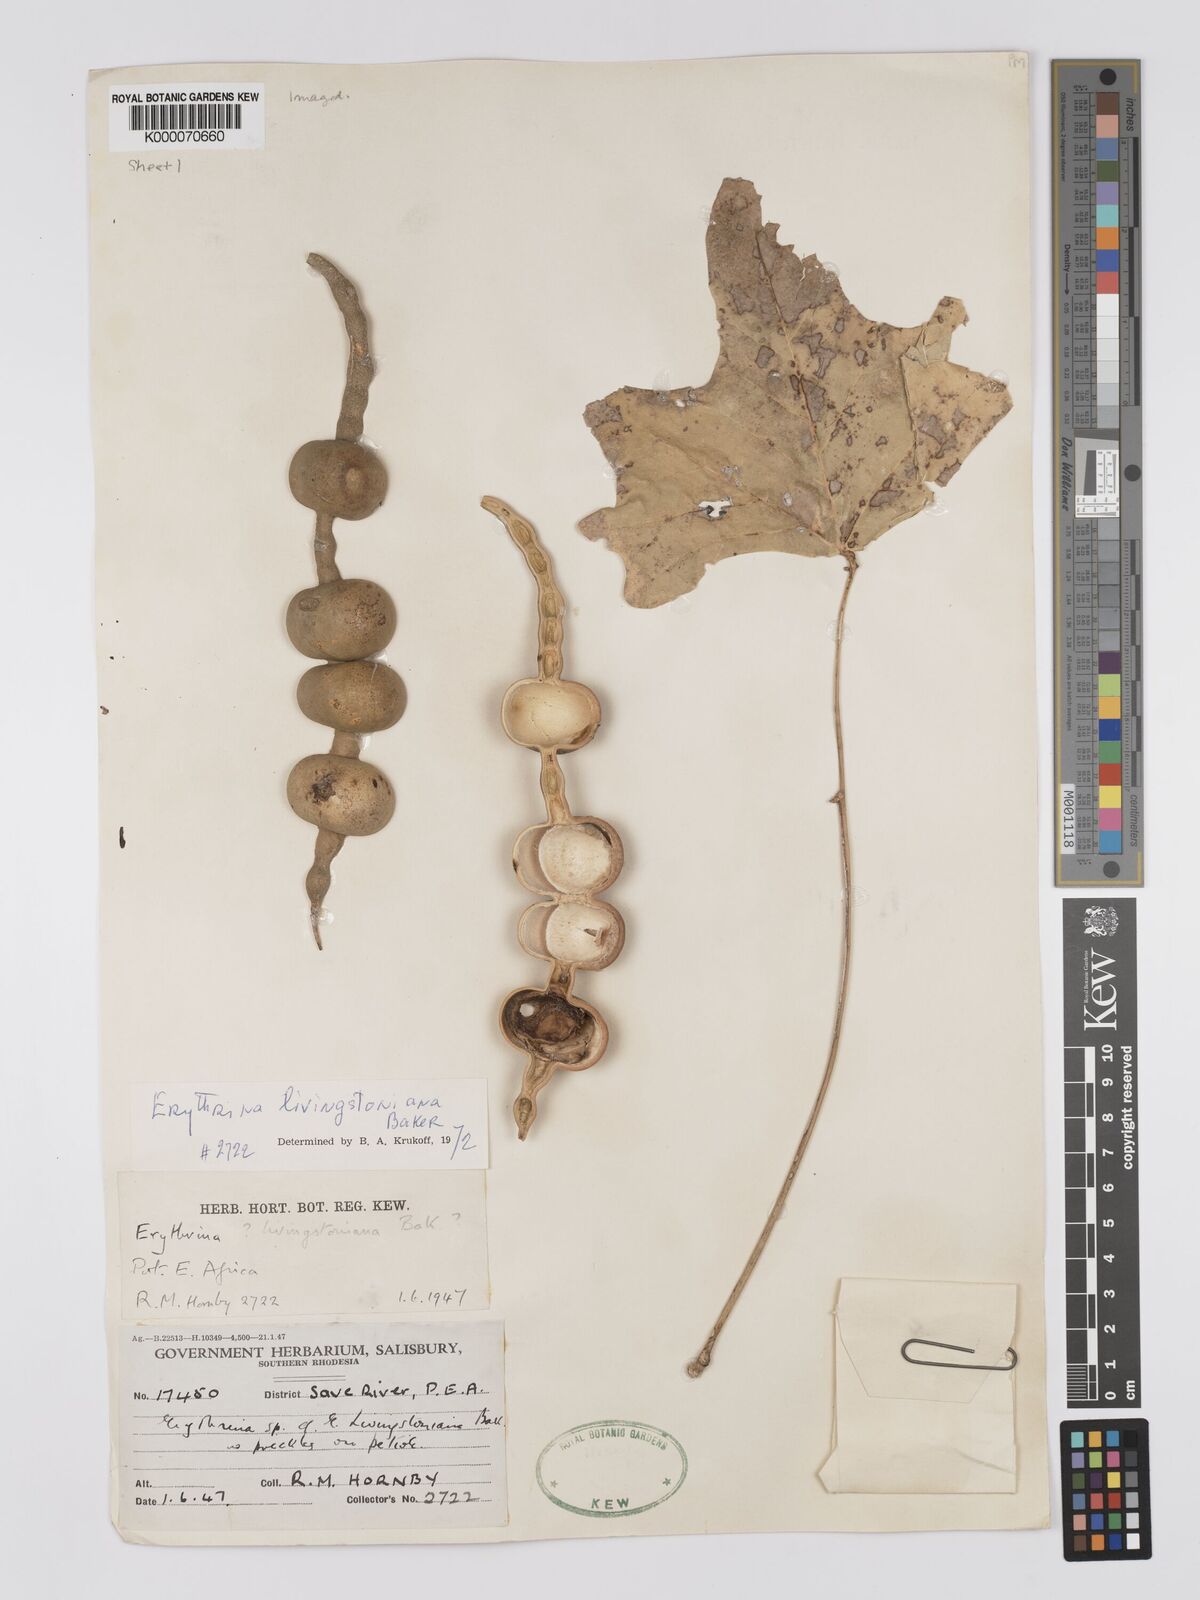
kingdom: Plantae
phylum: Tracheophyta
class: Magnoliopsida
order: Fabales
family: Fabaceae
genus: Erythrina
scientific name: Erythrina
